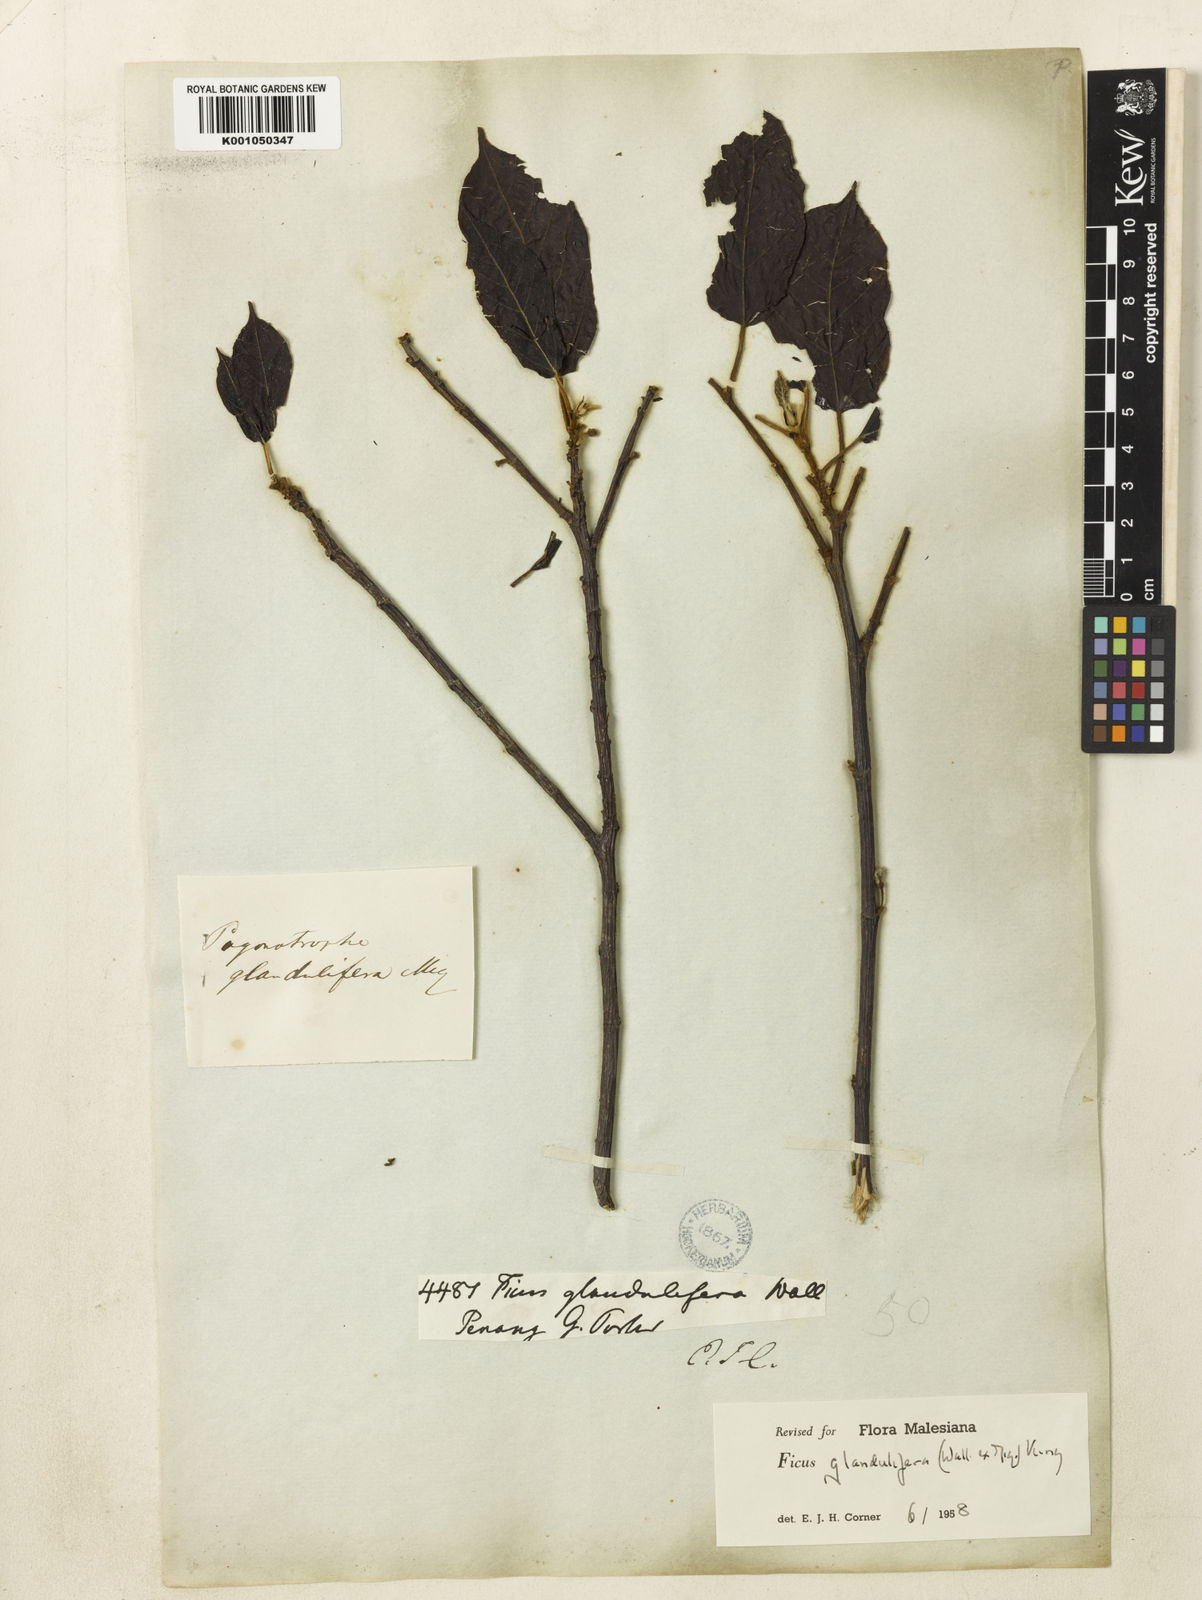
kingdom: Plantae
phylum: Tracheophyta
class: Magnoliopsida
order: Rosales
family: Moraceae
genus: Ficus
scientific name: Ficus
